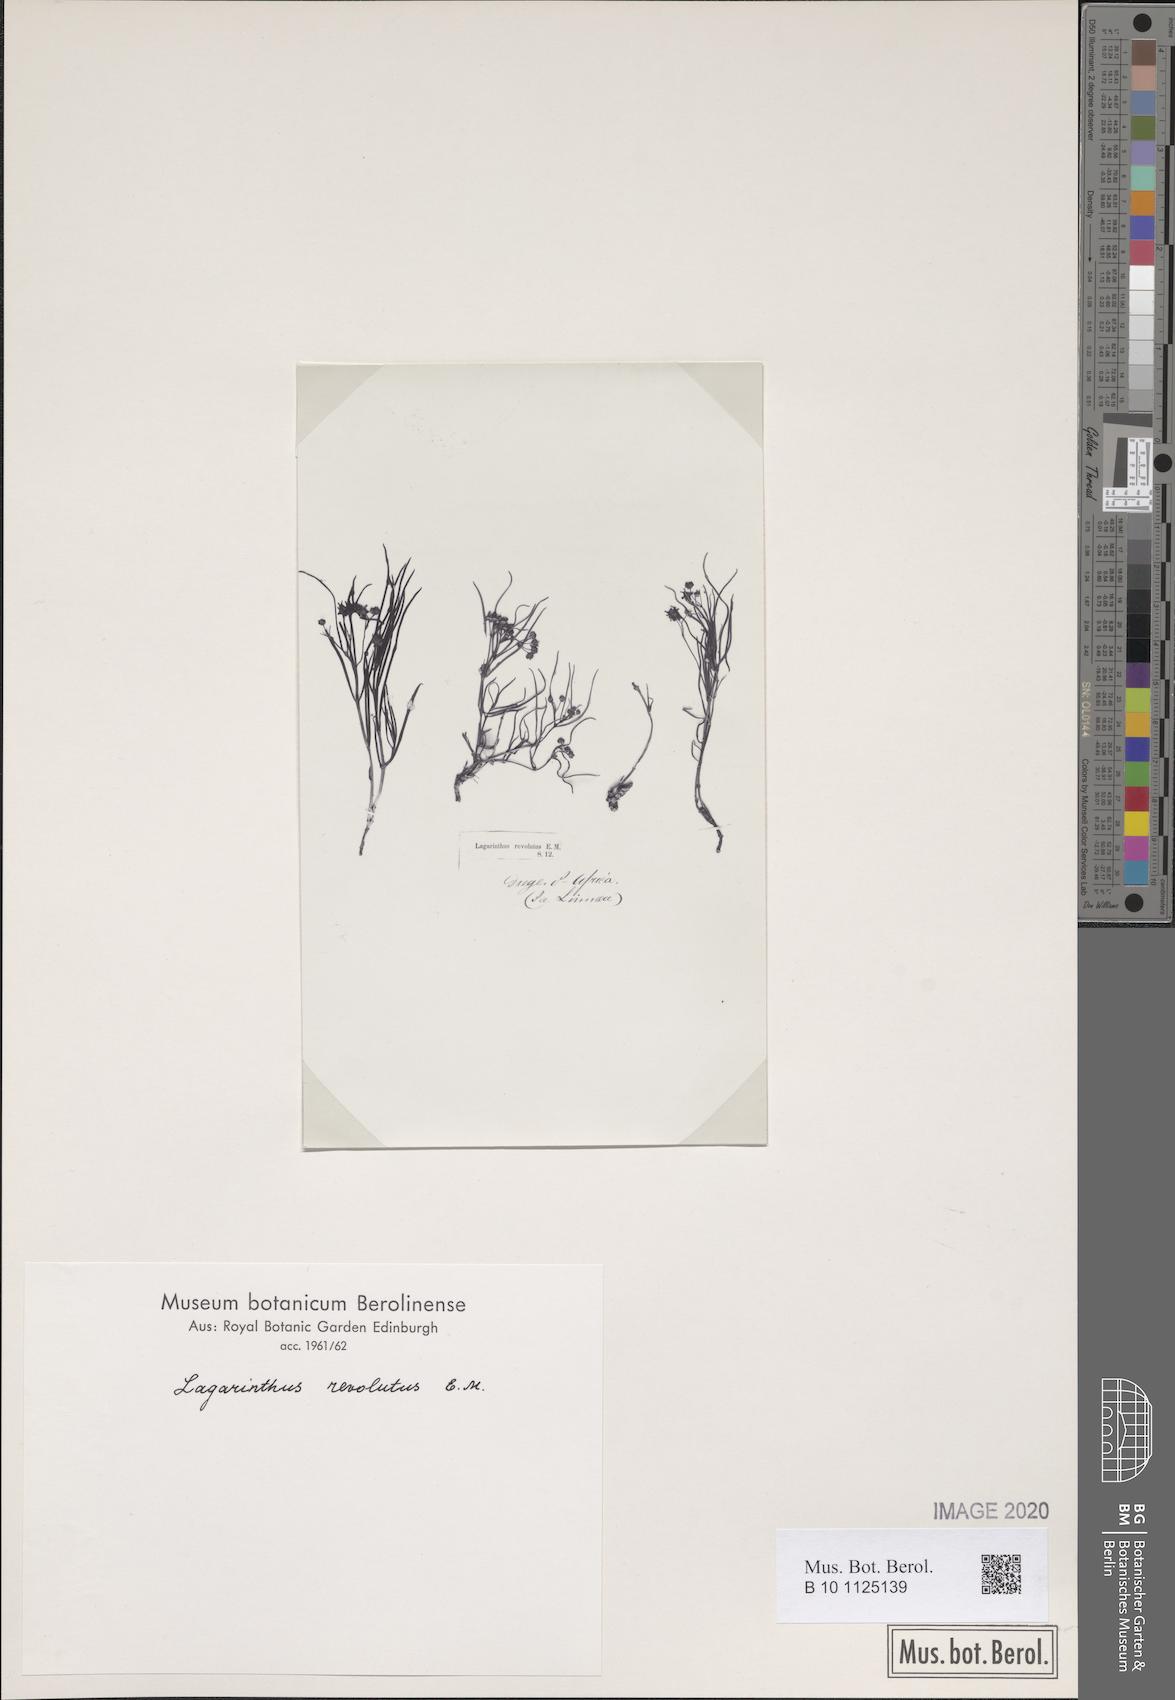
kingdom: Plantae
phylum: Tracheophyta
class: Magnoliopsida
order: Gentianales
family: Apocynaceae
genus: Asclepias
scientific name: Asclepias stellifera
